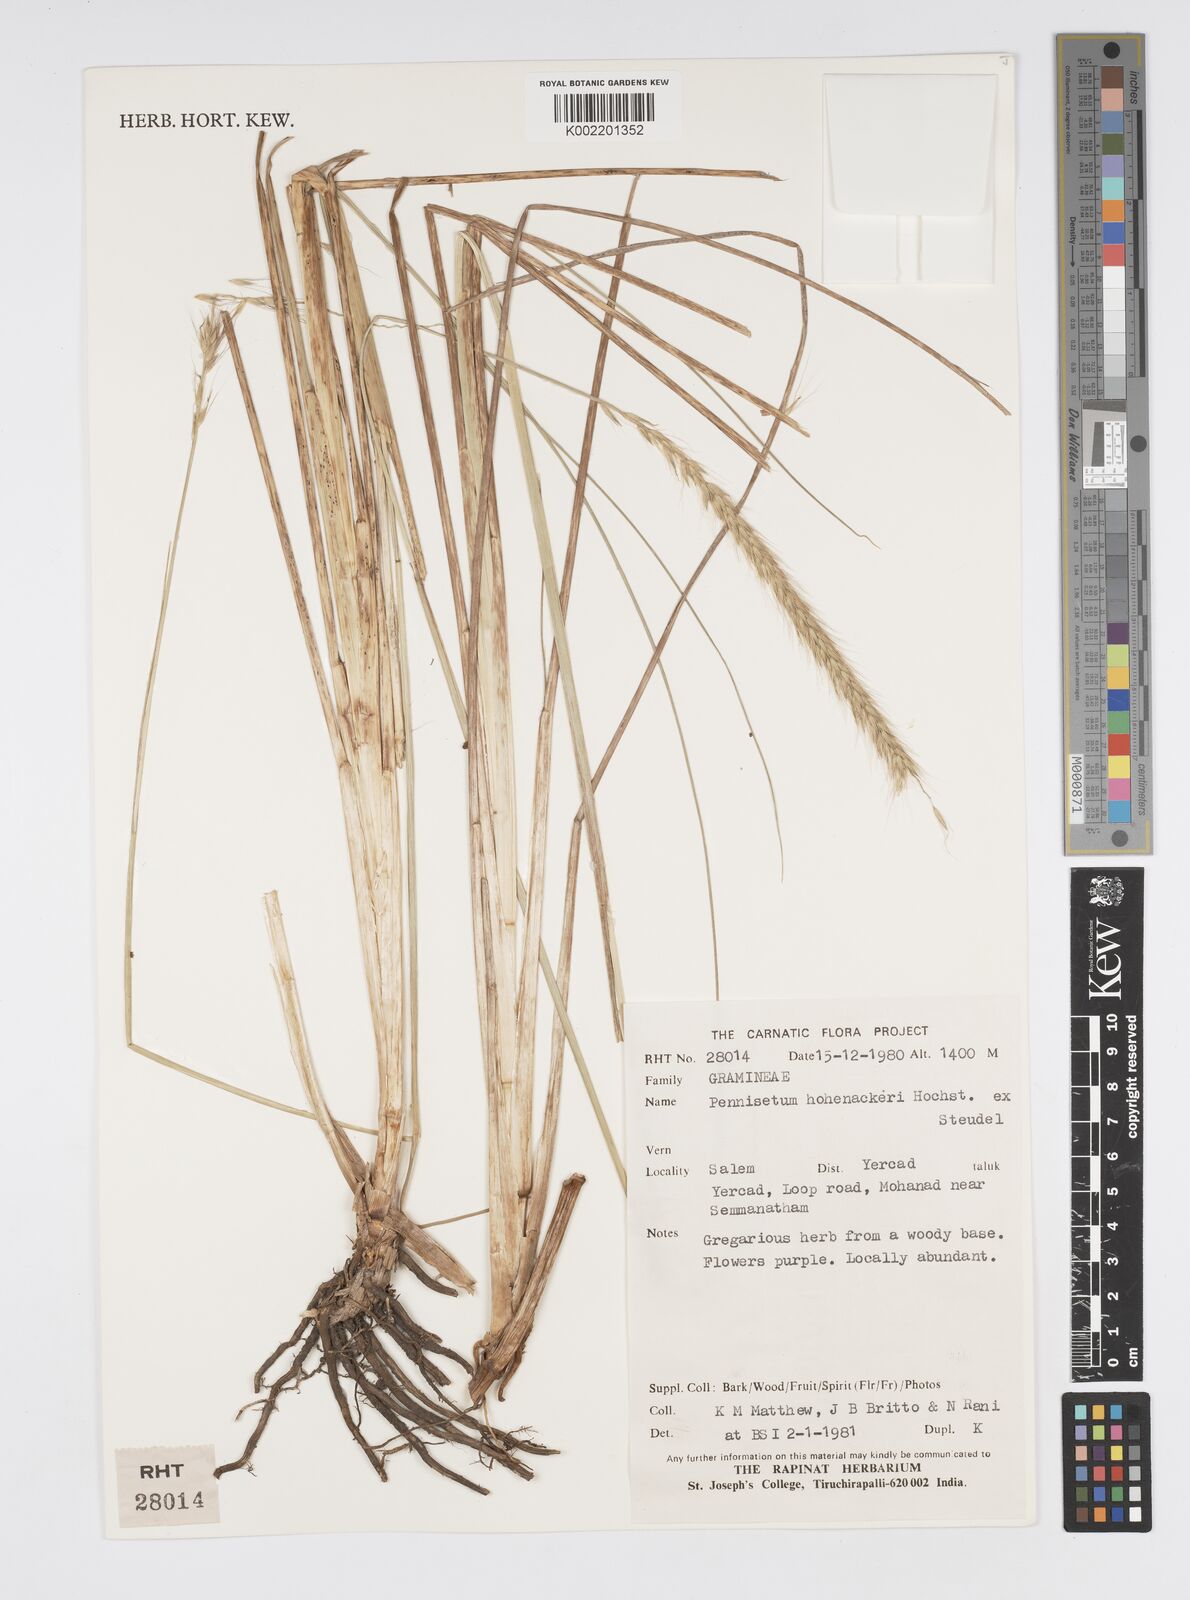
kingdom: Plantae
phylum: Tracheophyta
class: Liliopsida
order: Poales
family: Poaceae
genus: Cenchrus
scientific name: Cenchrus hohenackeri
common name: Moya grass
